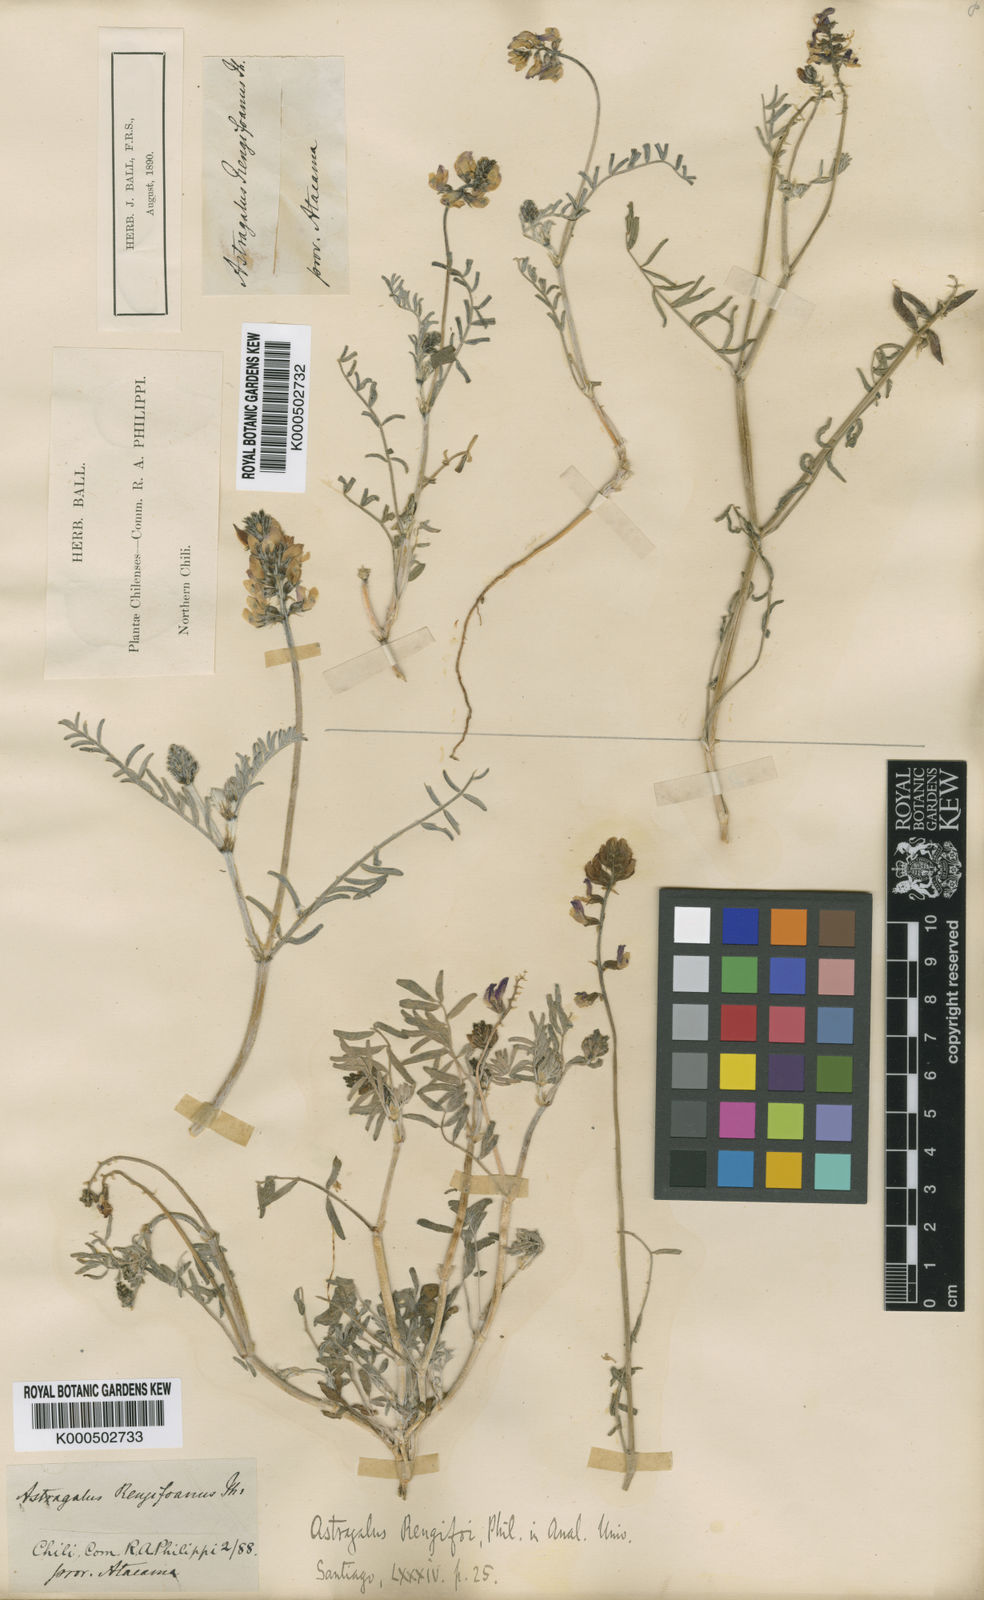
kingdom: Plantae
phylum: Tracheophyta
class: Magnoliopsida
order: Fabales
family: Fabaceae
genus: Astragalus
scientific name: Astragalus dodtii
